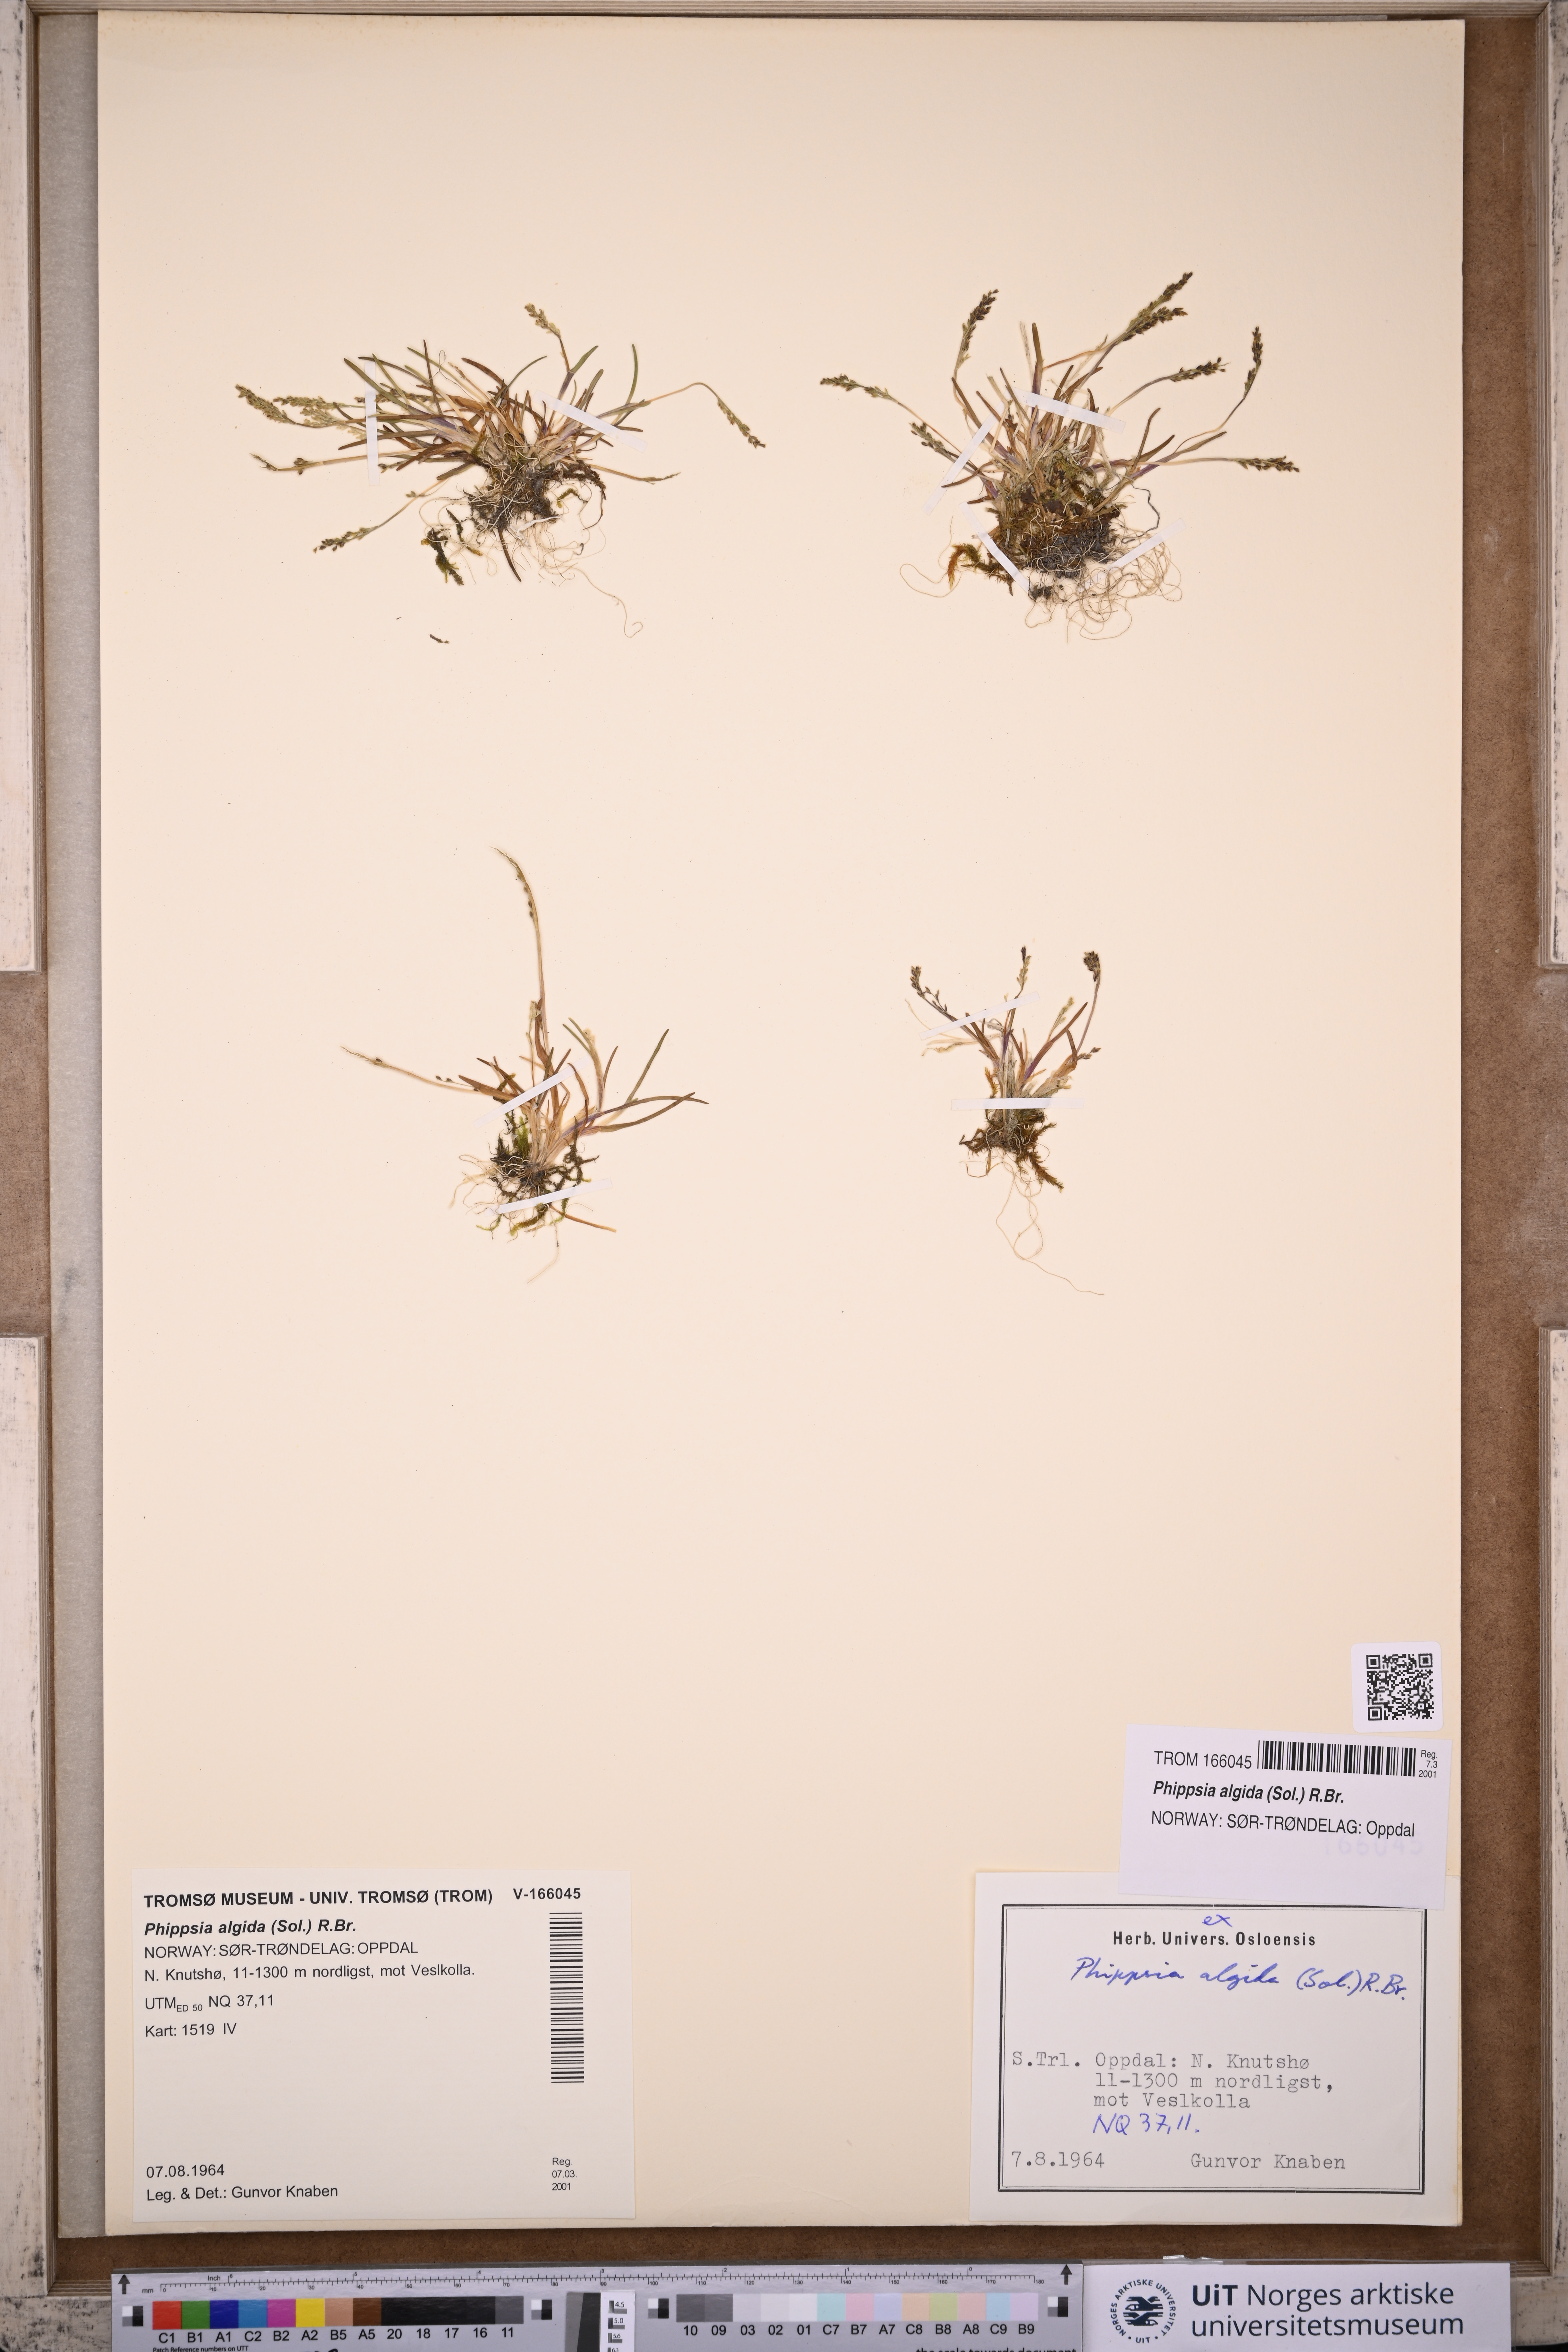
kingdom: Plantae
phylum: Tracheophyta
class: Liliopsida
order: Poales
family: Poaceae
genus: Phippsia
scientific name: Phippsia algida
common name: Ice grass
